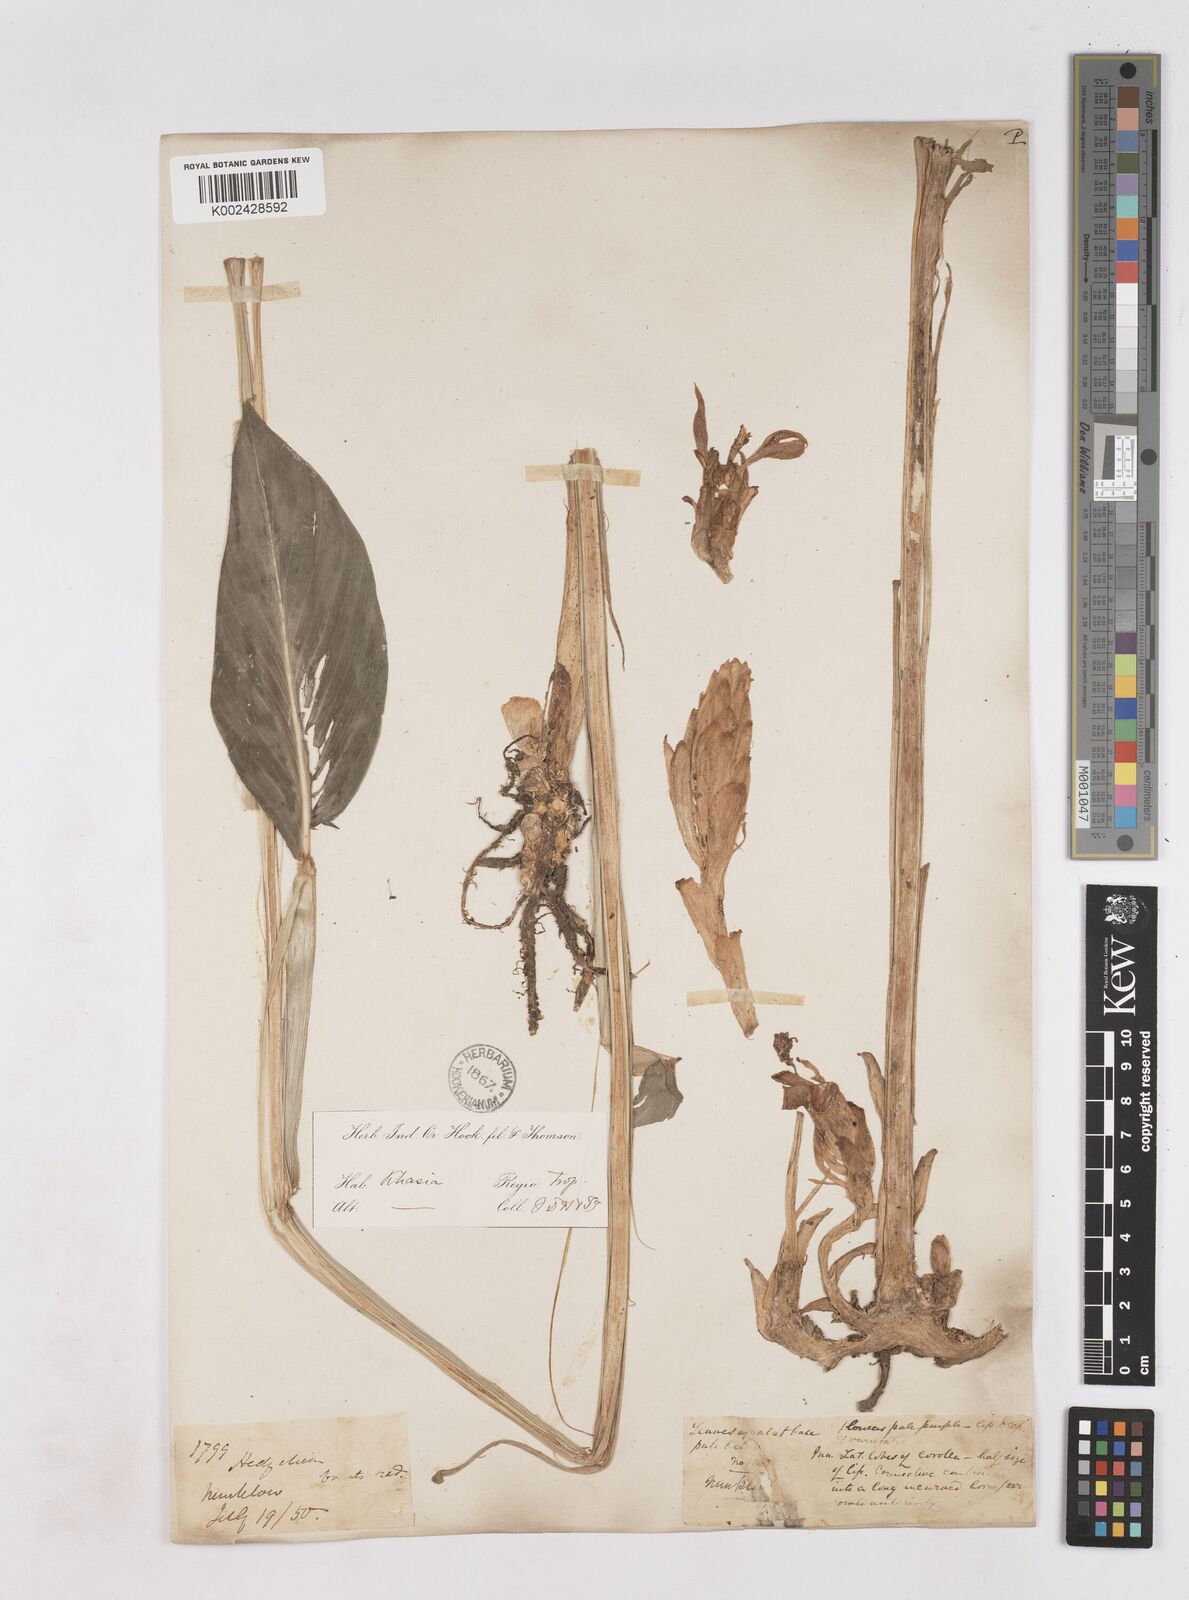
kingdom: Plantae
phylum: Tracheophyta
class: Liliopsida
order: Zingiberales
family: Zingiberaceae
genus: Zingiber
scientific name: Zingiber rubens
